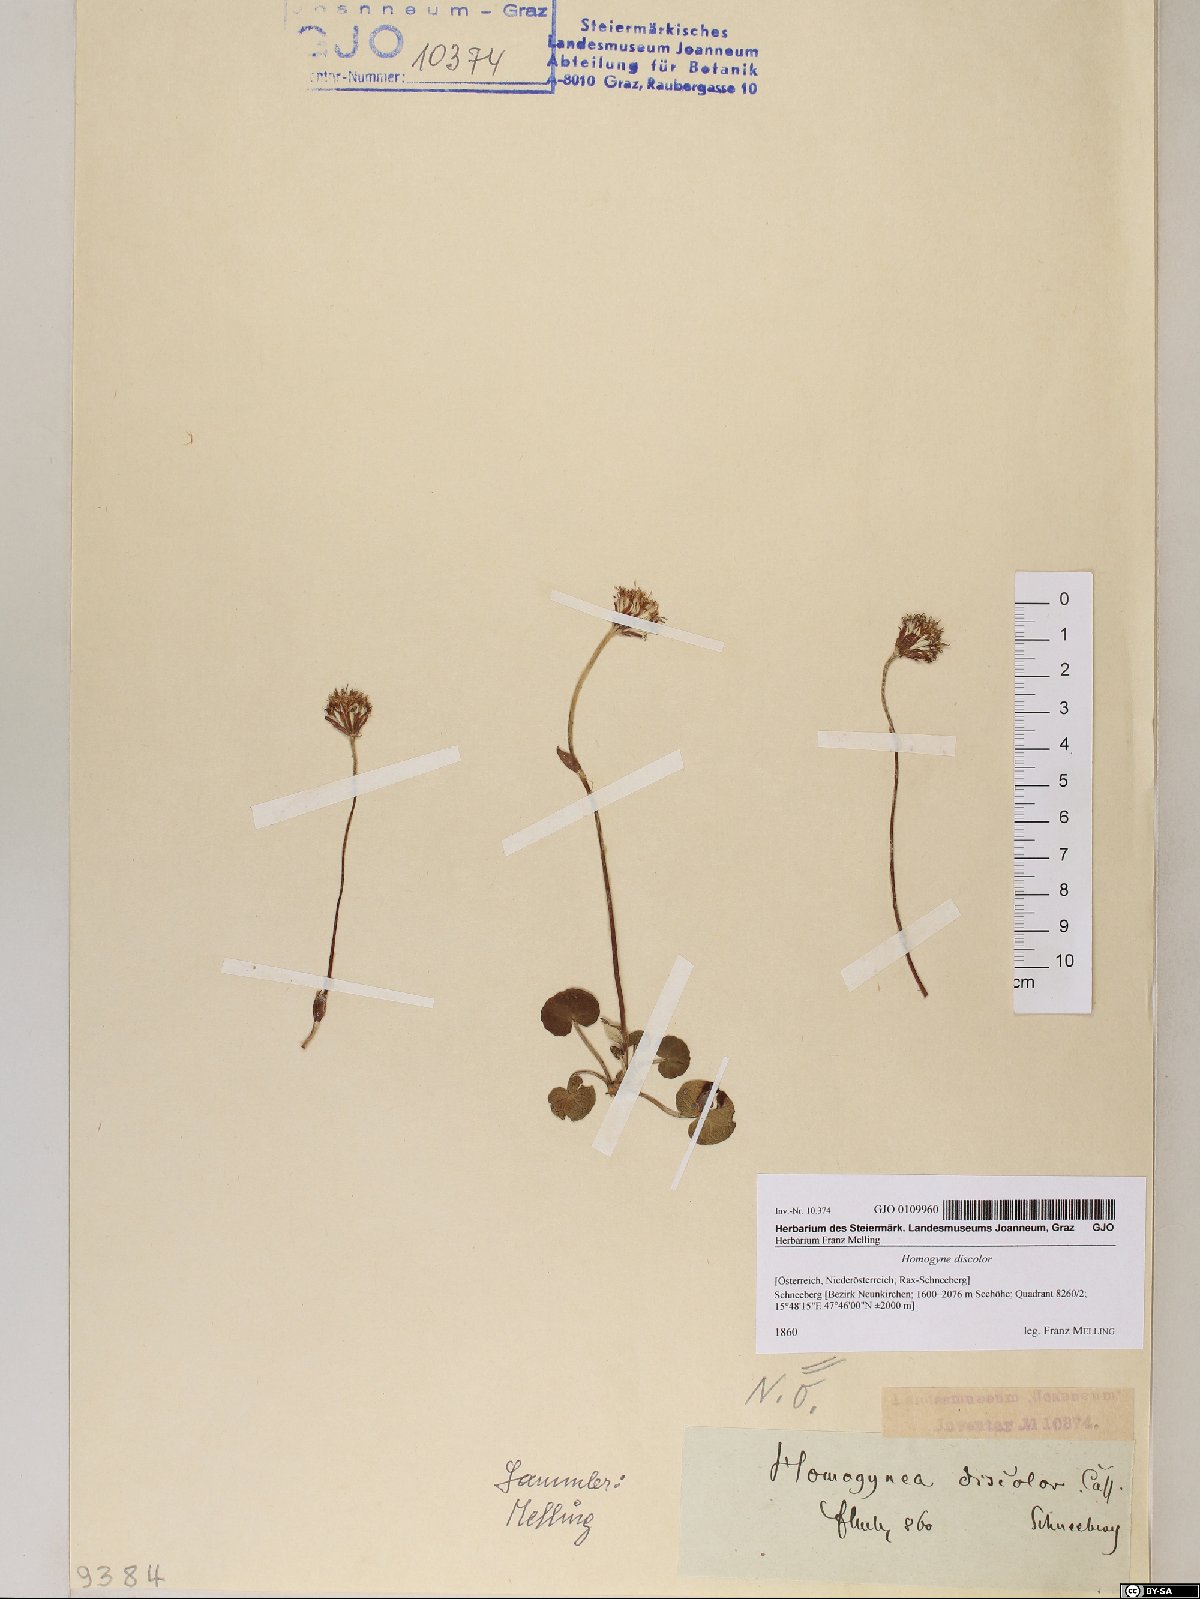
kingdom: Plantae
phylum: Tracheophyta
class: Magnoliopsida
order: Asterales
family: Asteraceae
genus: Homogyne
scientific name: Homogyne discolor
